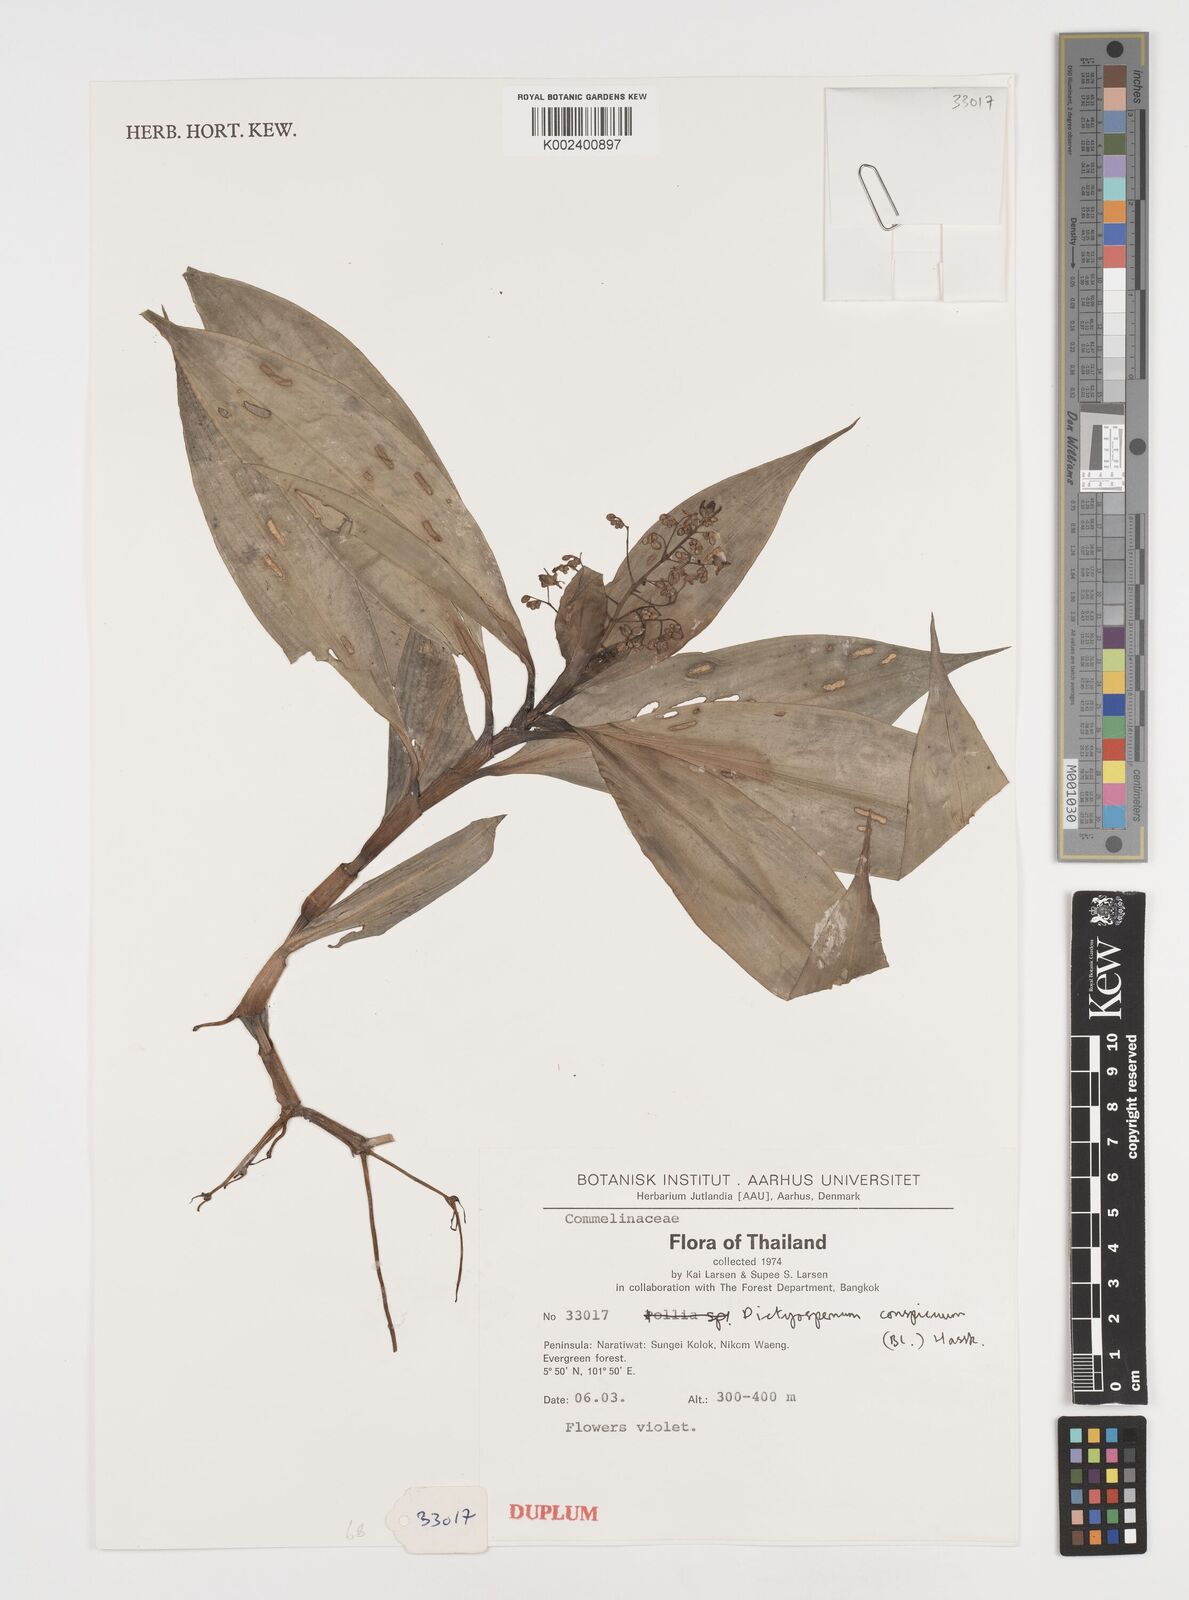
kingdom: Plantae
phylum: Tracheophyta
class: Liliopsida
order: Commelinales
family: Commelinaceae
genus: Dictyospermum
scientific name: Dictyospermum conspicuum
